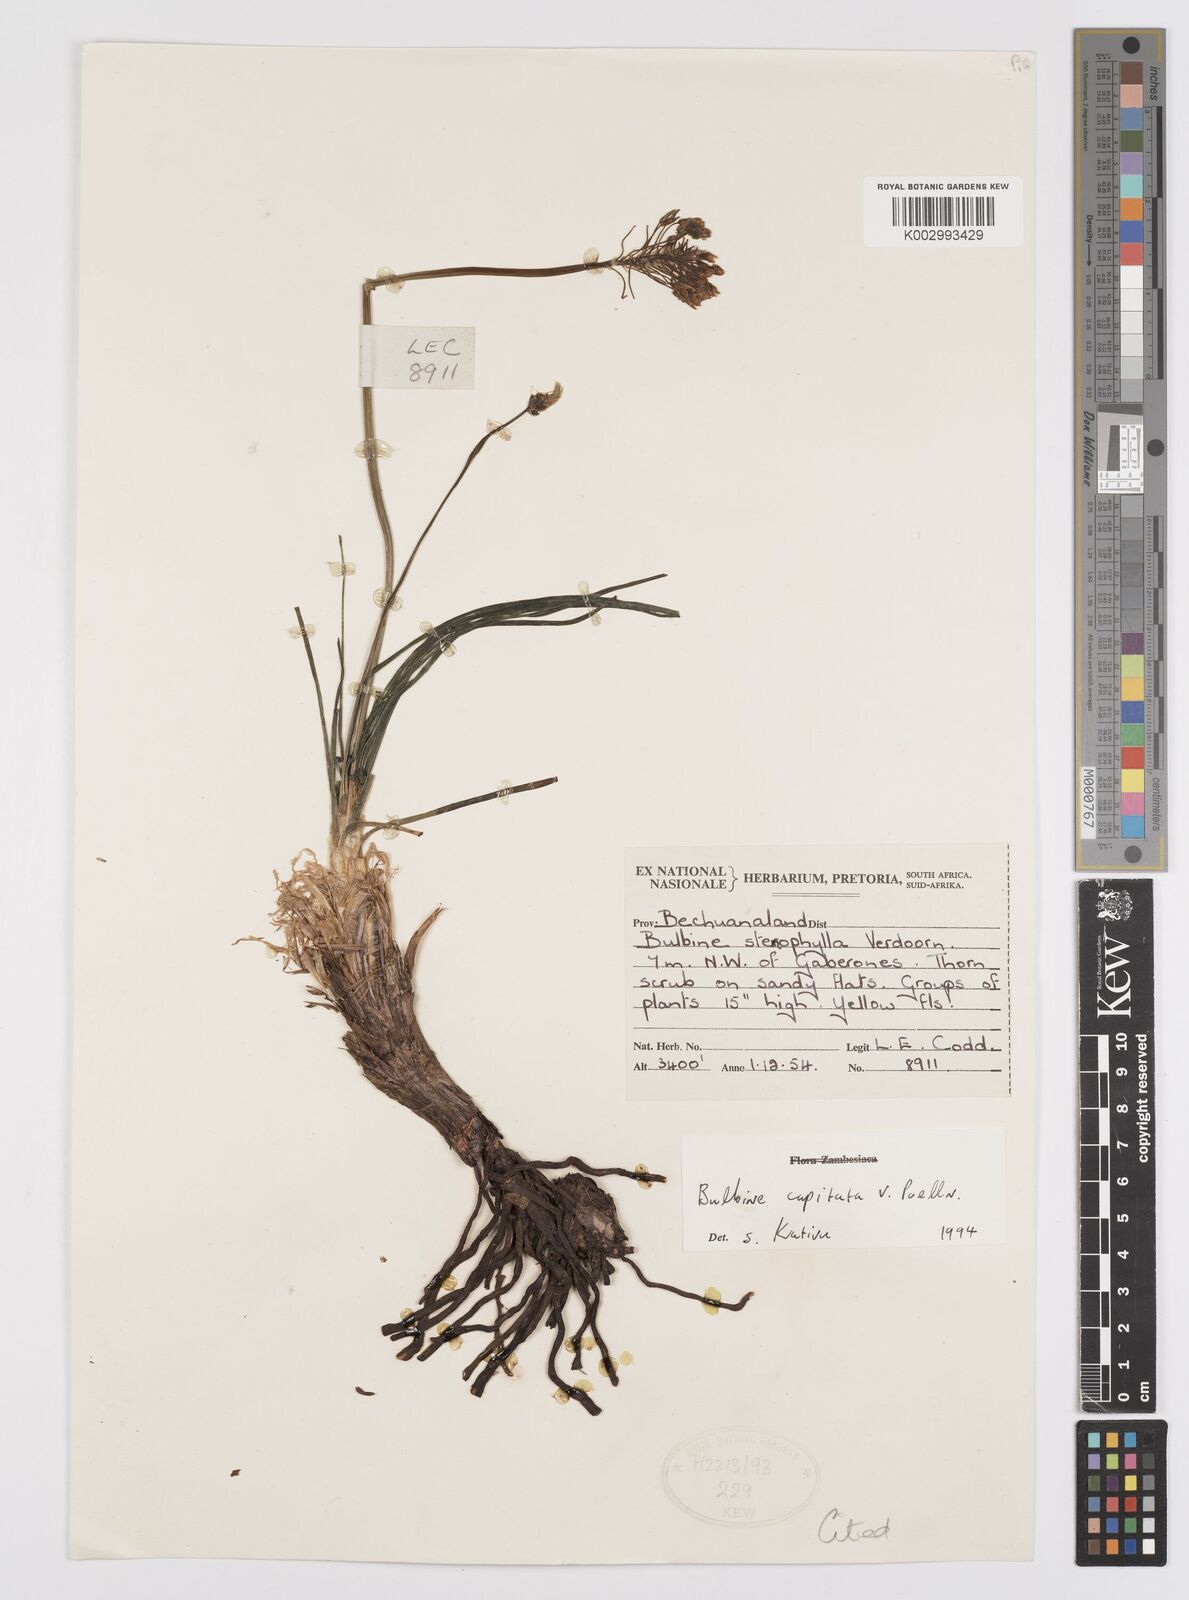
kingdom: Plantae
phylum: Tracheophyta
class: Liliopsida
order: Asparagales
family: Asphodelaceae
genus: Bulbine
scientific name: Bulbine capitata
